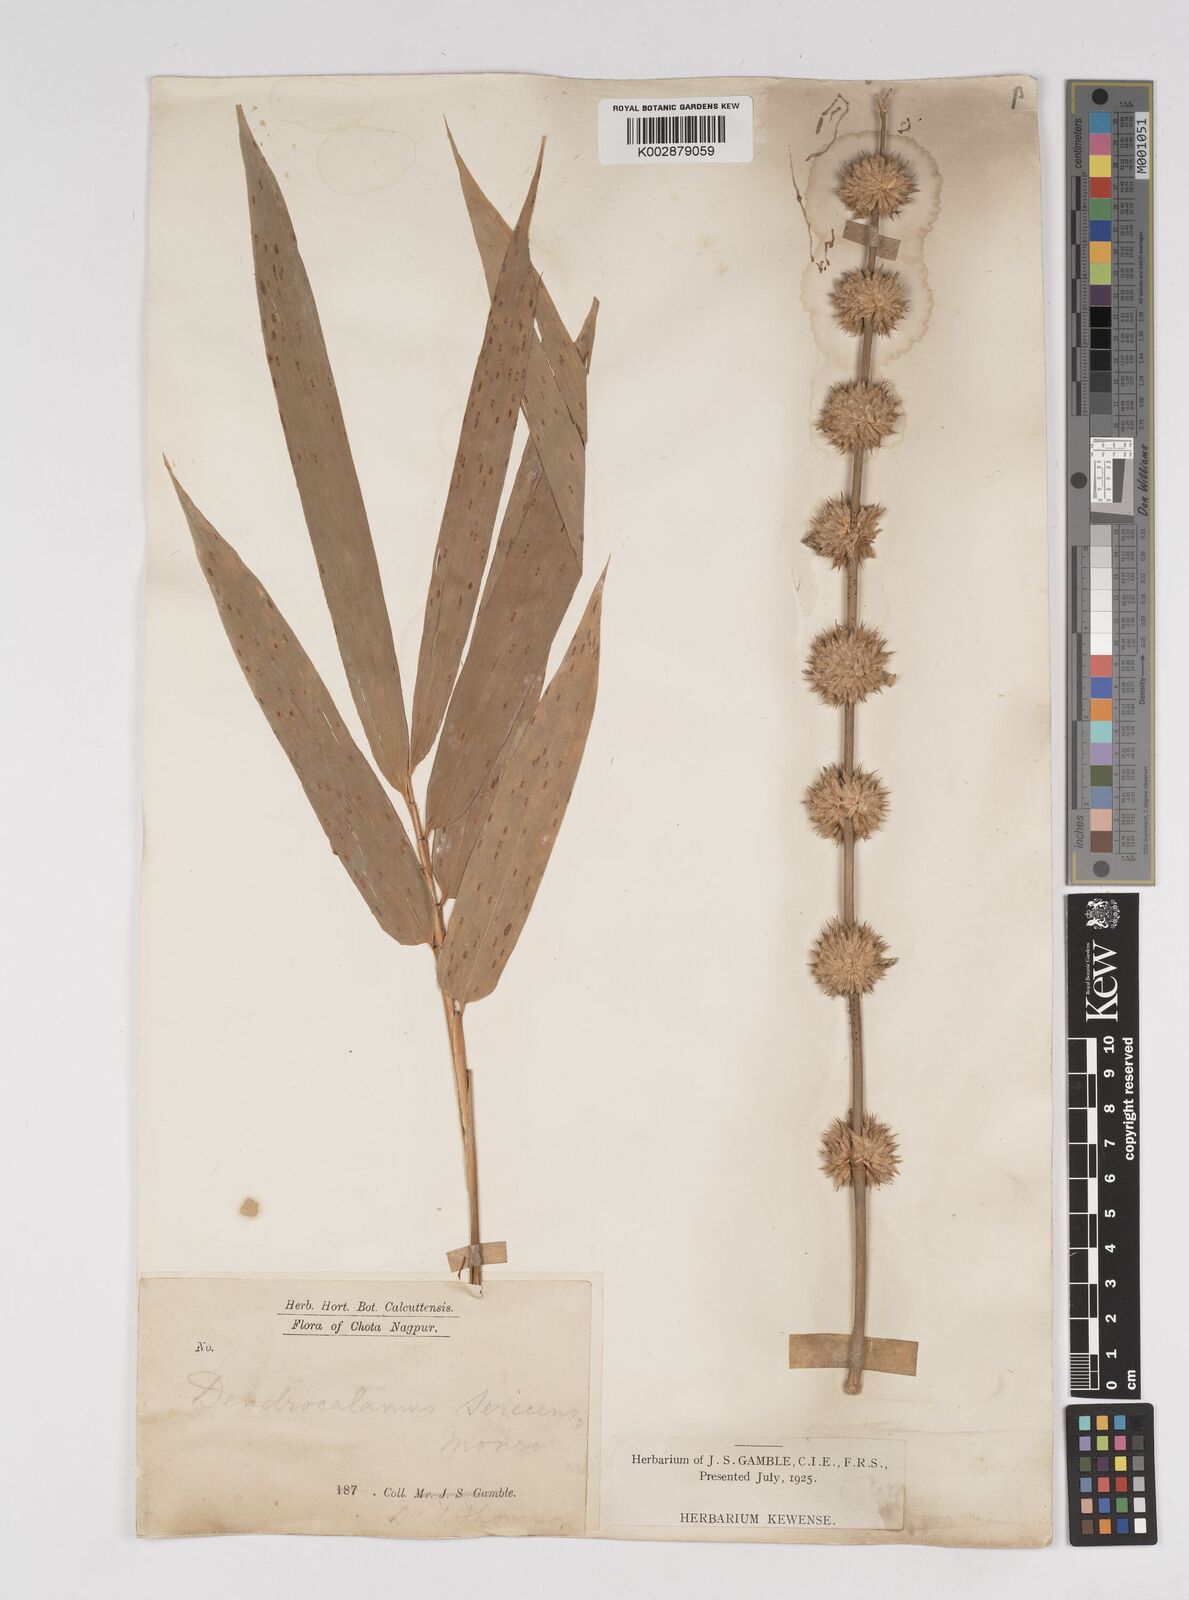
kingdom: Plantae
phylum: Tracheophyta
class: Liliopsida
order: Poales
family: Poaceae
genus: Dendrocalamus
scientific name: Dendrocalamus sericeus
